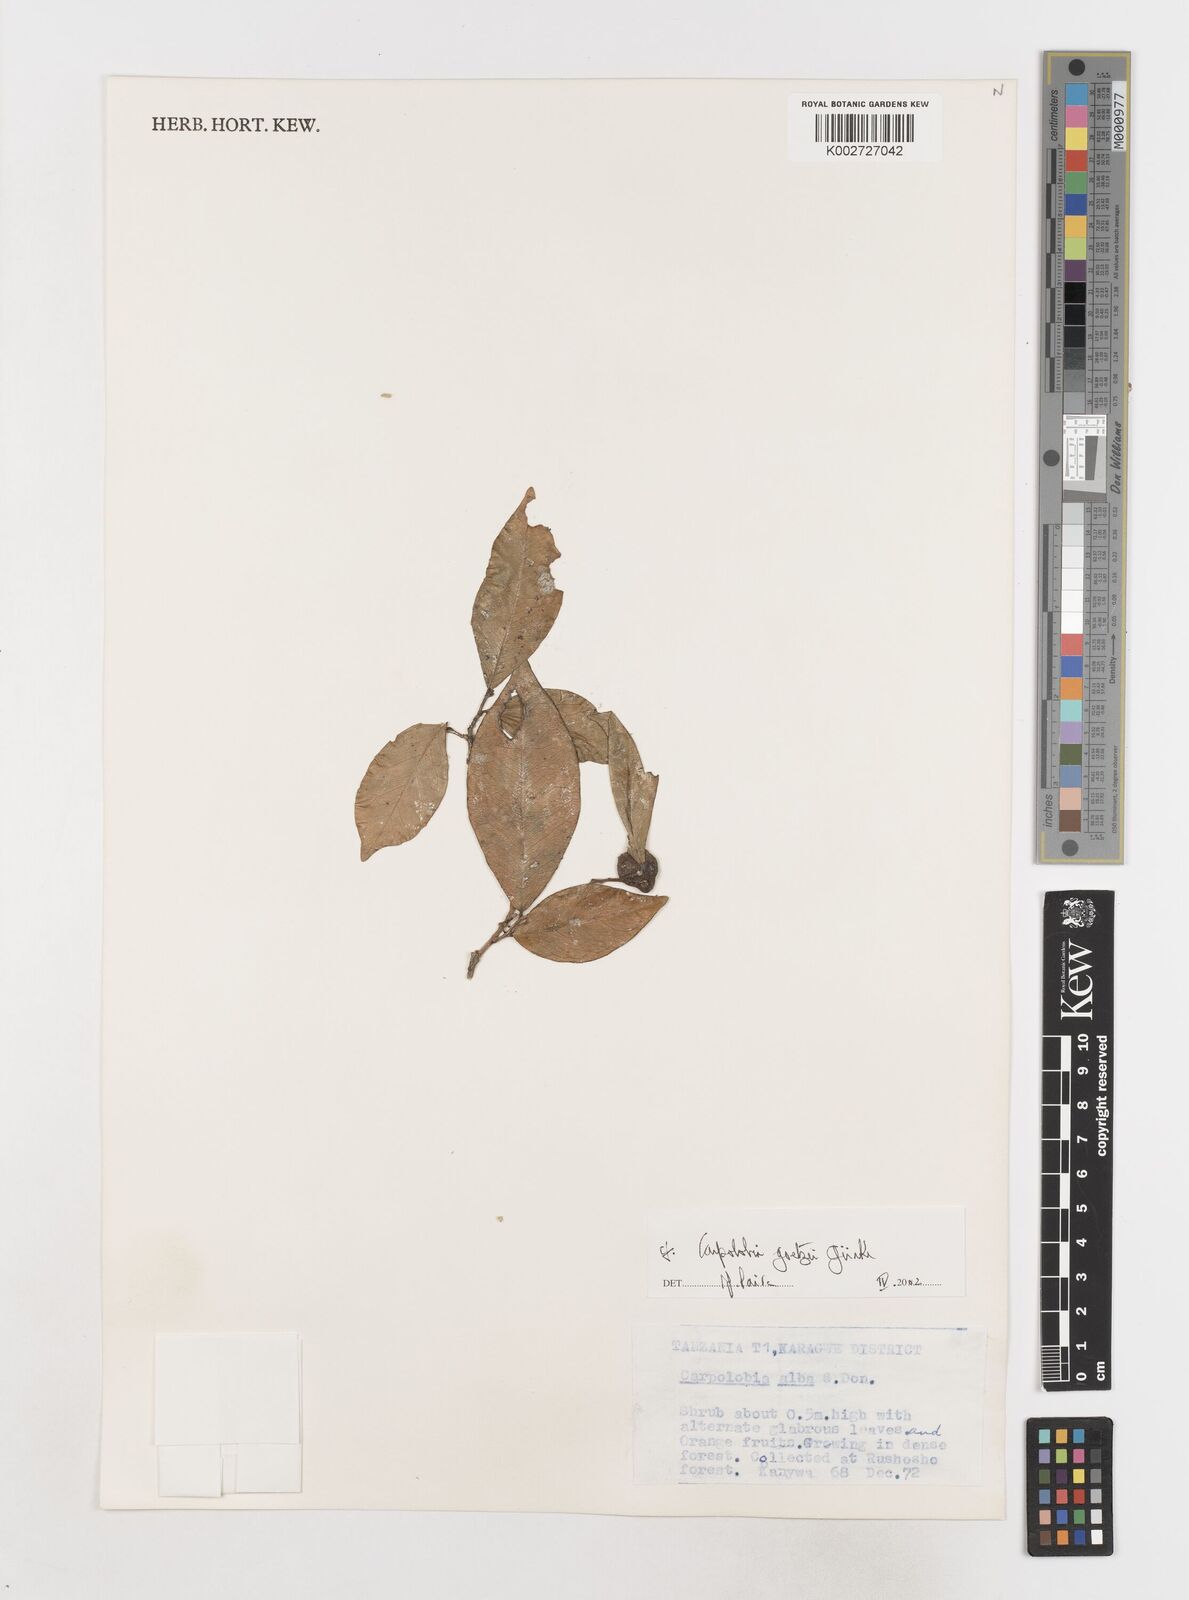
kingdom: Plantae
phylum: Tracheophyta
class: Magnoliopsida
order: Fabales
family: Polygalaceae
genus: Carpolobia
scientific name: Carpolobia goetzei
